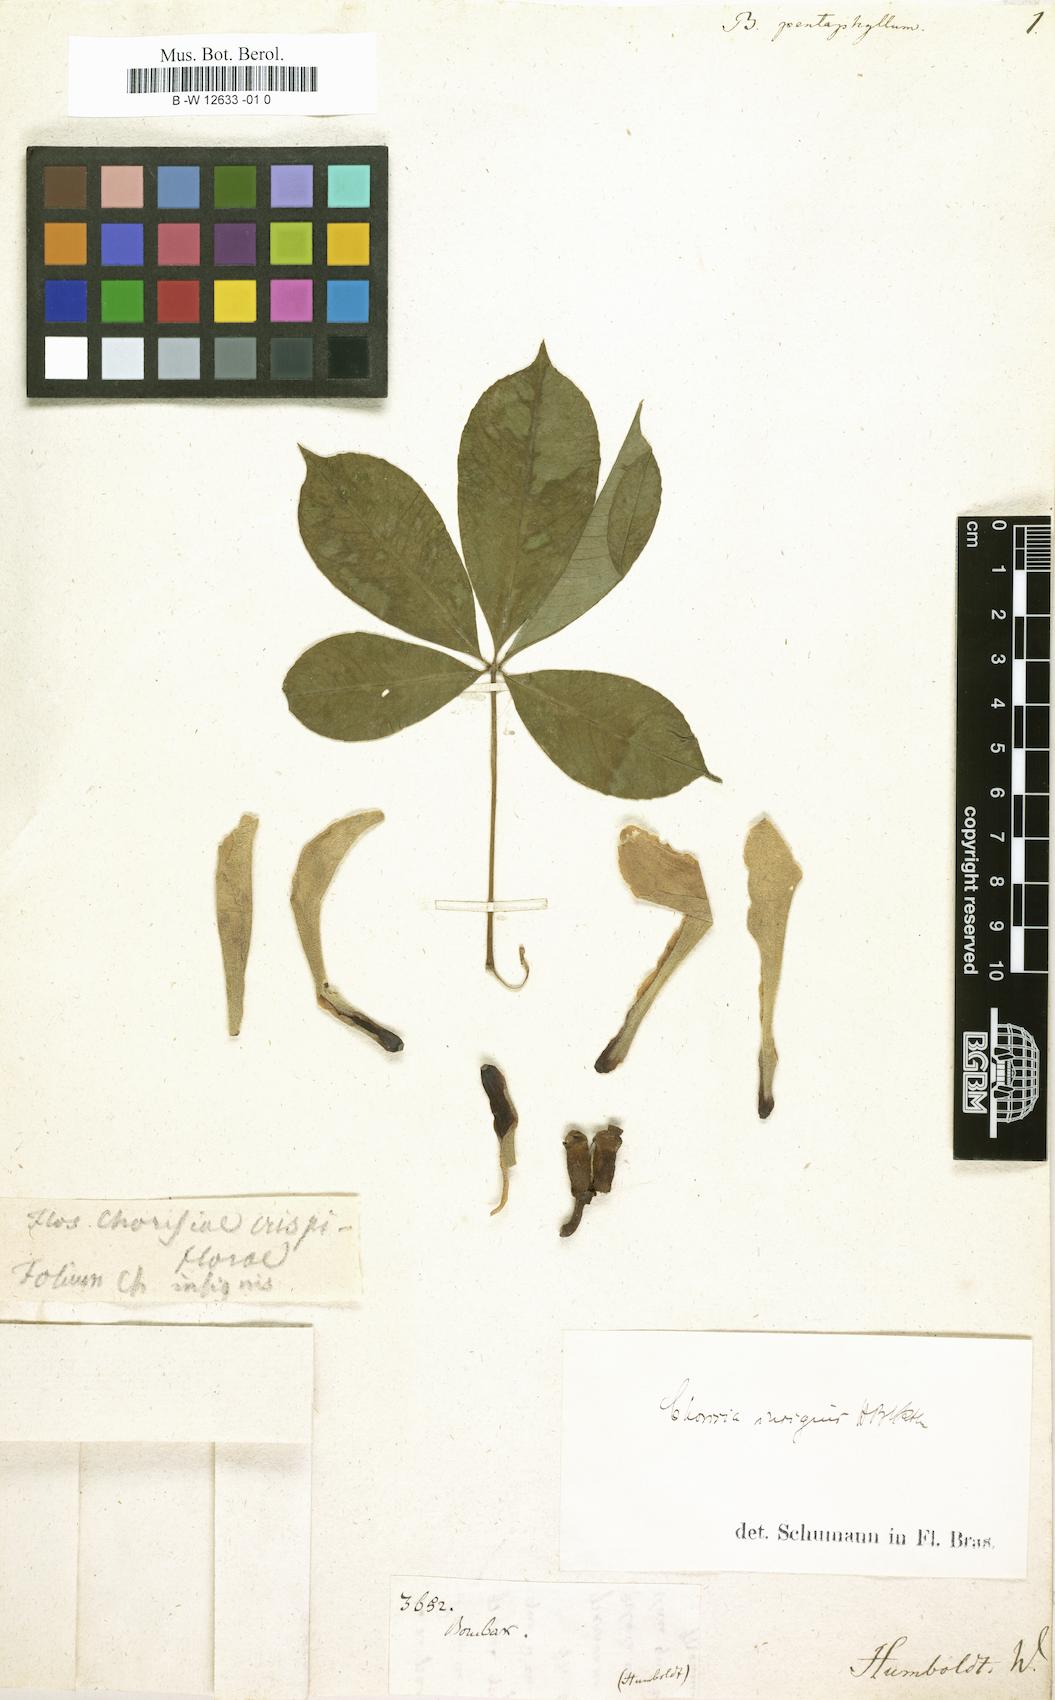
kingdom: Plantae
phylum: Tracheophyta
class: Magnoliopsida
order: Malvales
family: Malvaceae
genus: Eriotheca
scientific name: Eriotheca pentaphylla
